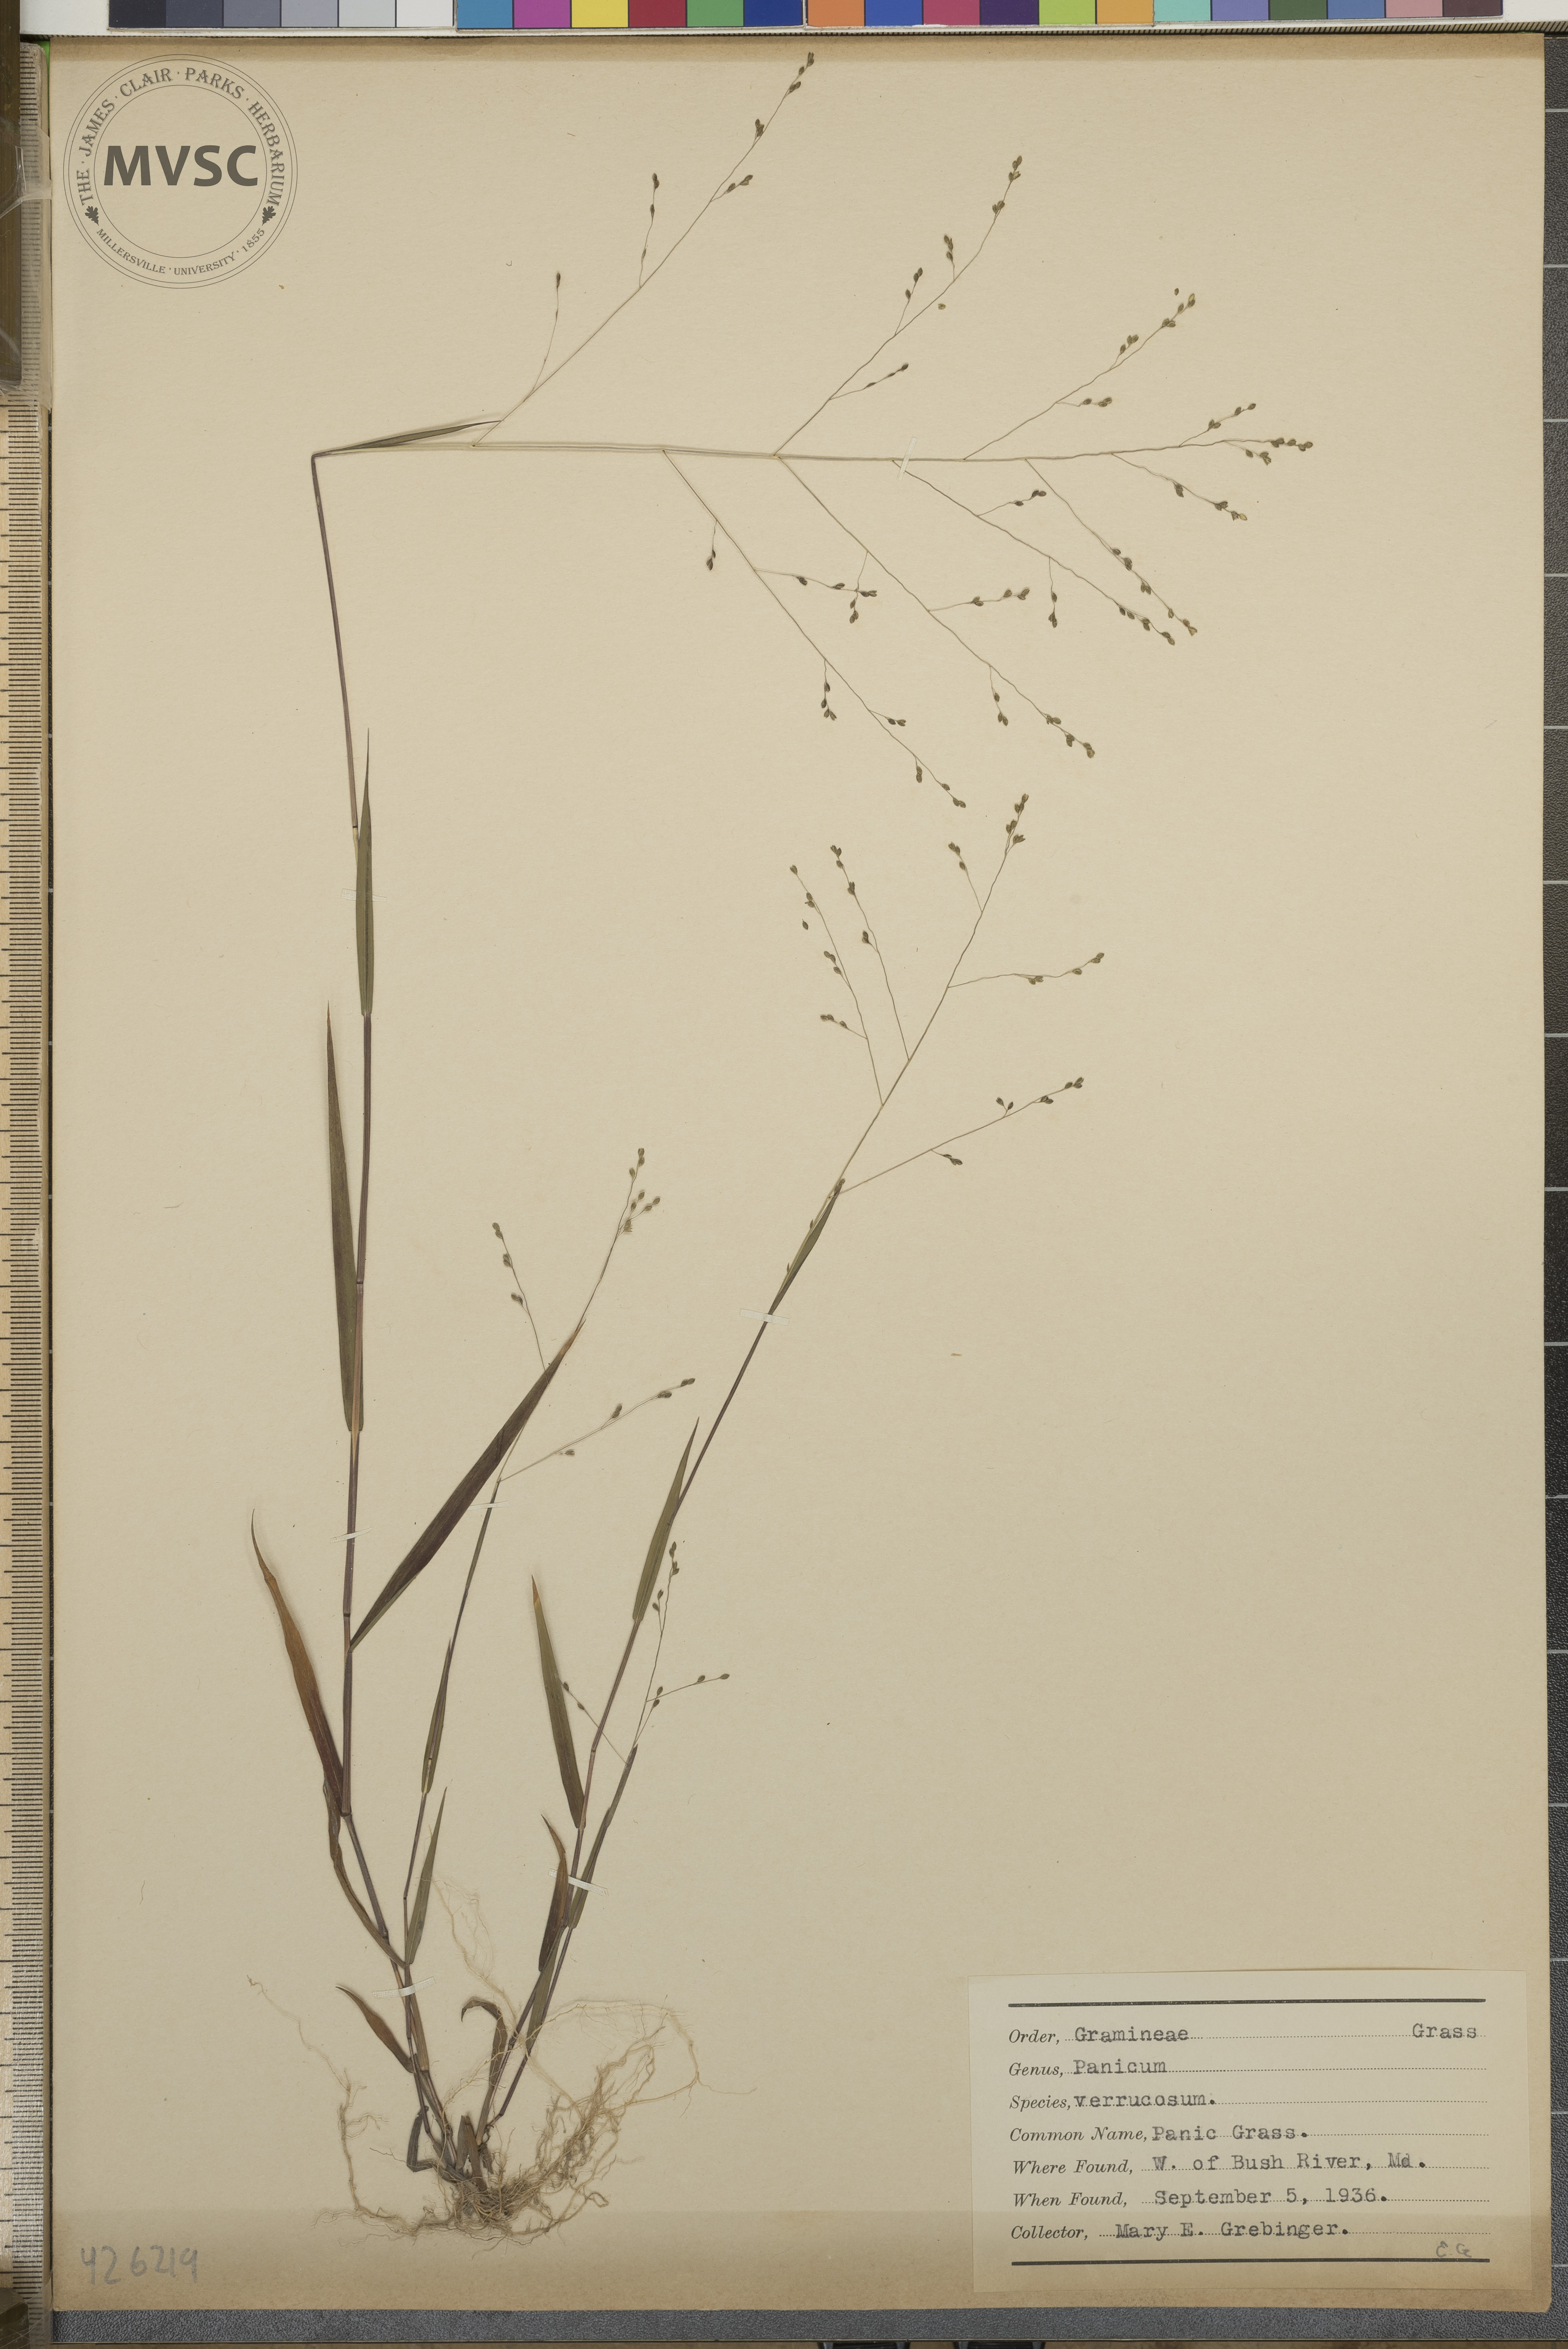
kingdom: Plantae
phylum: Tracheophyta
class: Liliopsida
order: Poales
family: Poaceae
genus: Kellochloa
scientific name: Kellochloa verrucosa
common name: Panic grass
